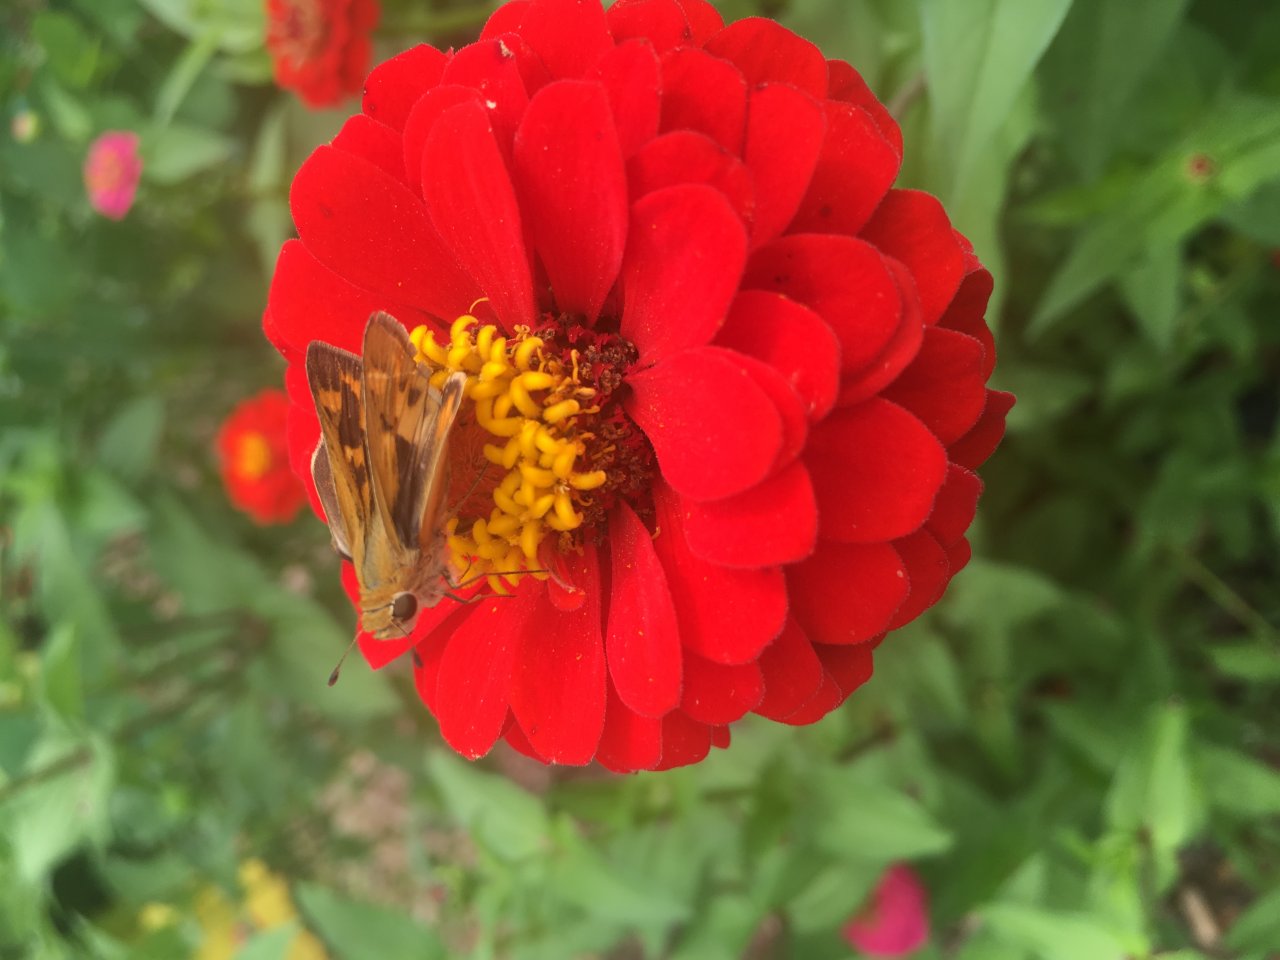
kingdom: Animalia
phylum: Arthropoda
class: Insecta
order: Lepidoptera
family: Hesperiidae
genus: Polites
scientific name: Polites vibex
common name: Whirlabout
